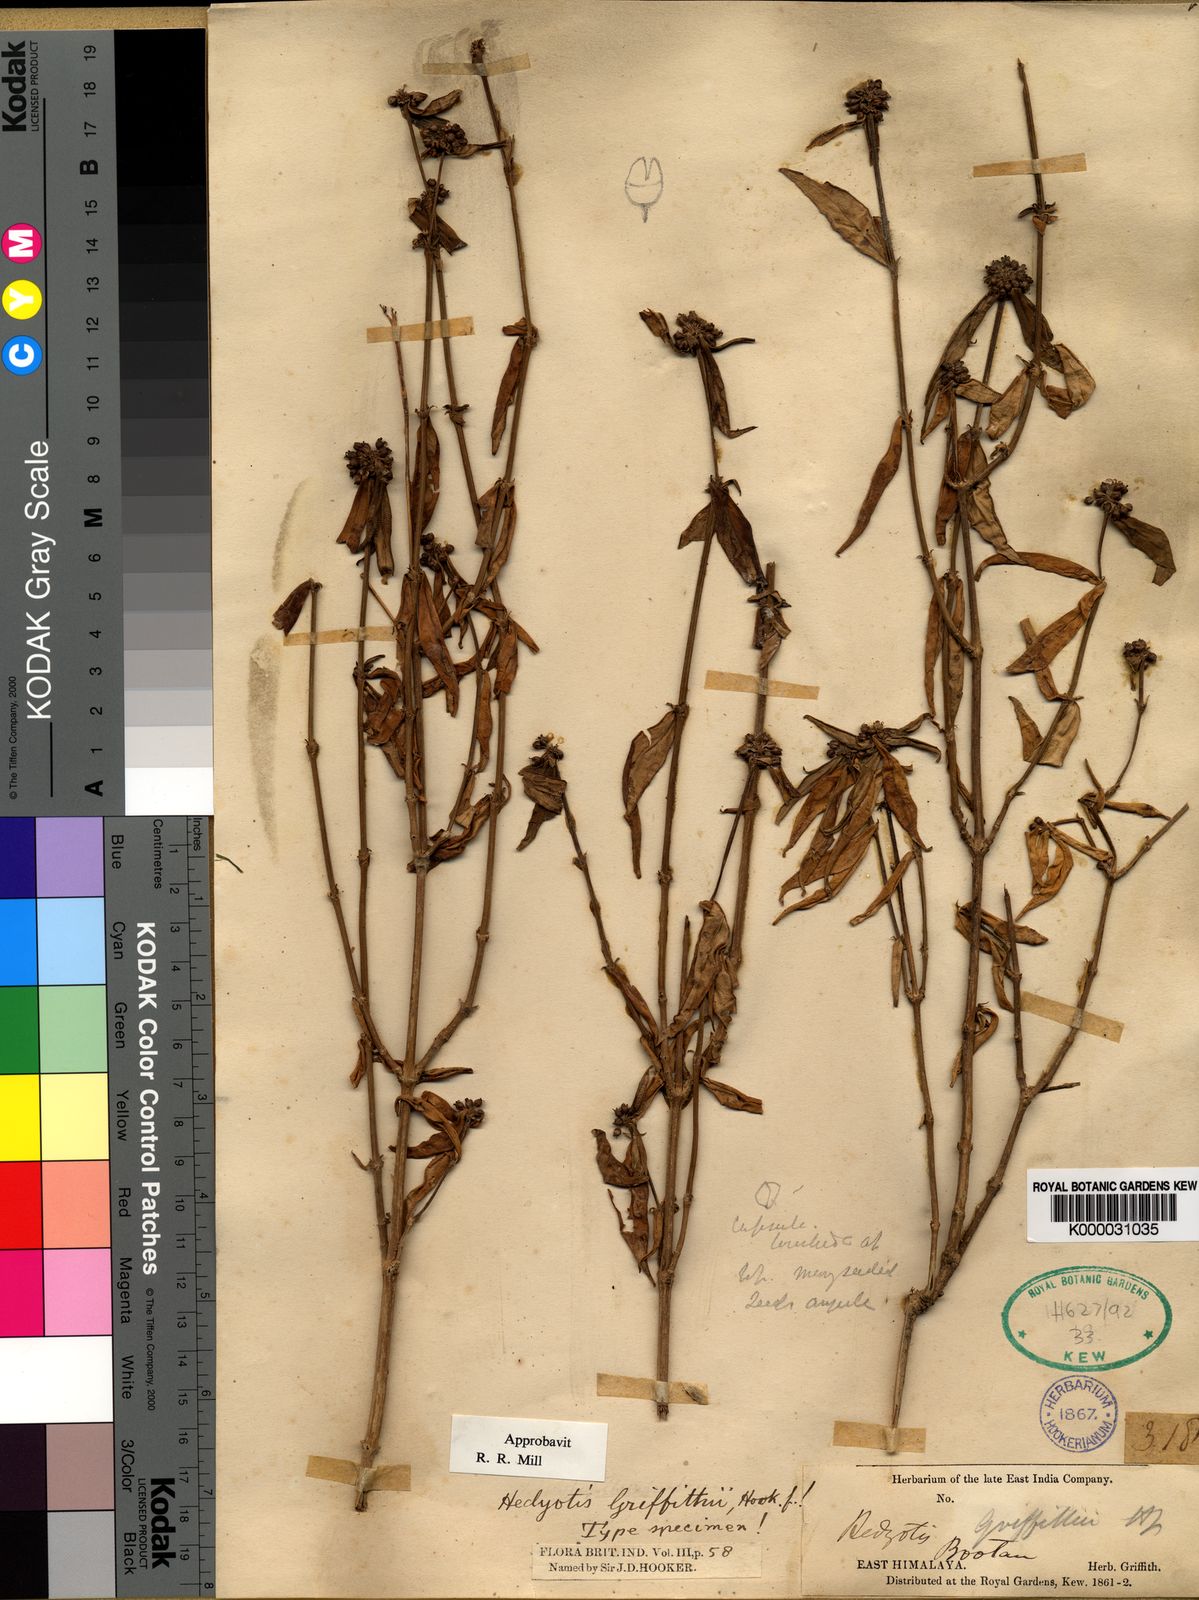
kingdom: Plantae
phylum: Tracheophyta
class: Magnoliopsida
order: Gentianales
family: Rubiaceae
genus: Hedyotis
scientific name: Hedyotis griffithii
